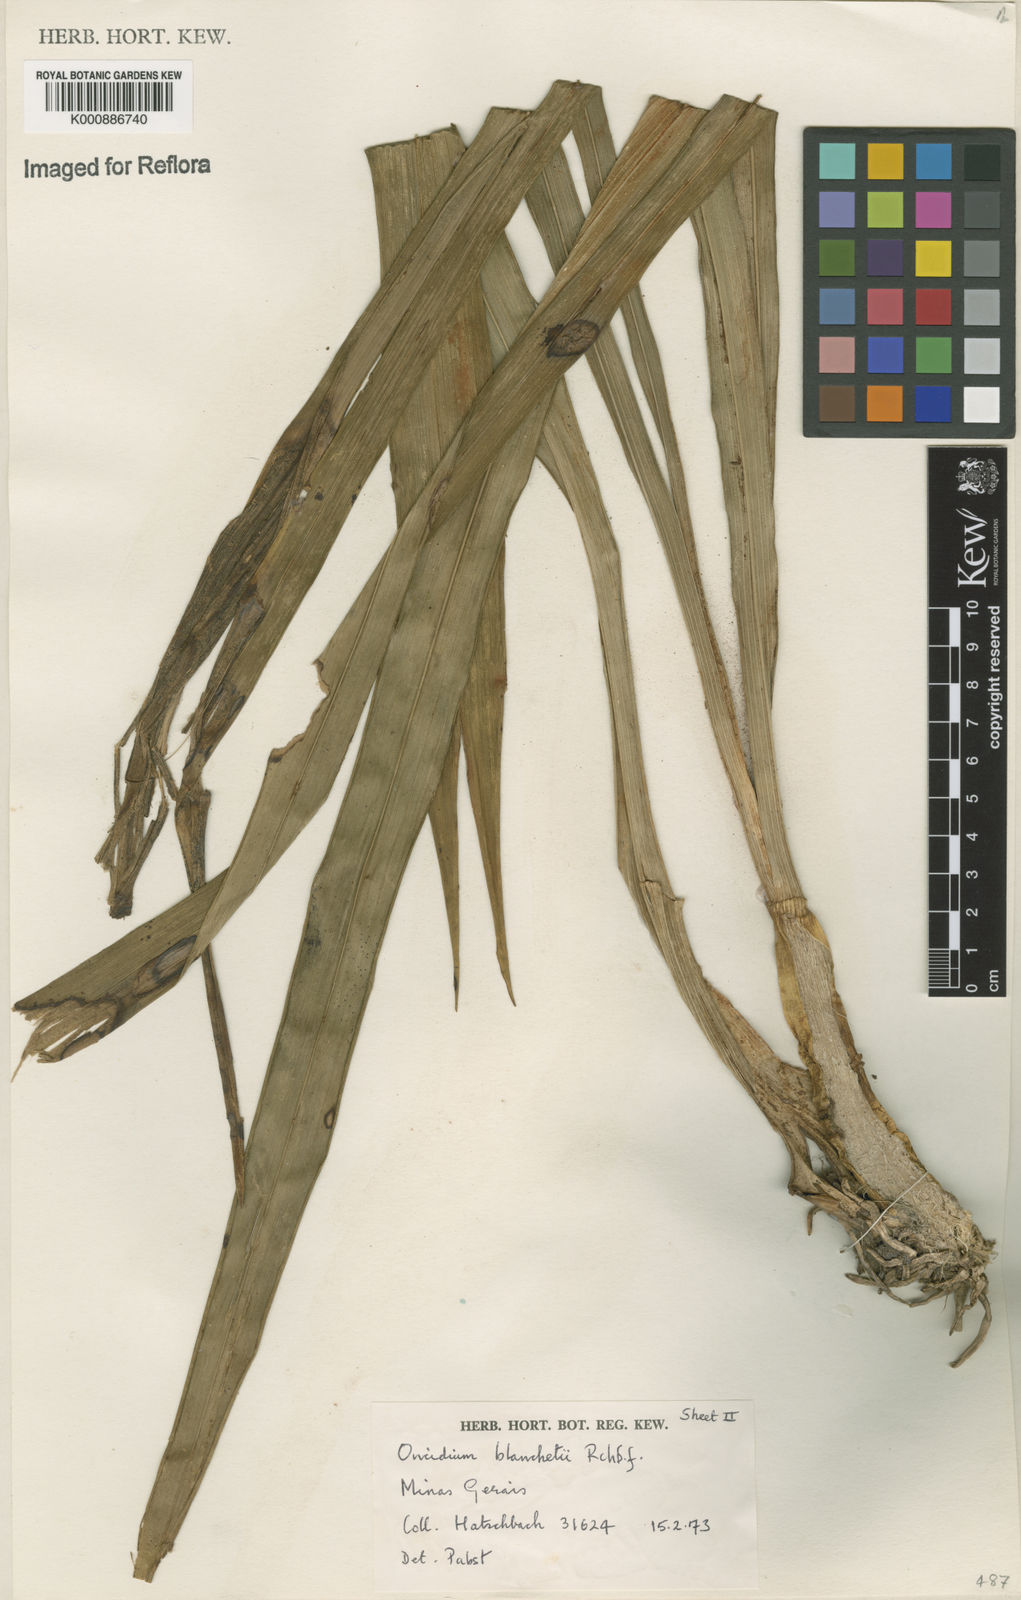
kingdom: Plantae
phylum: Tracheophyta
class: Liliopsida
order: Asparagales
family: Orchidaceae
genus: Gomesa
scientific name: Gomesa ramosa
